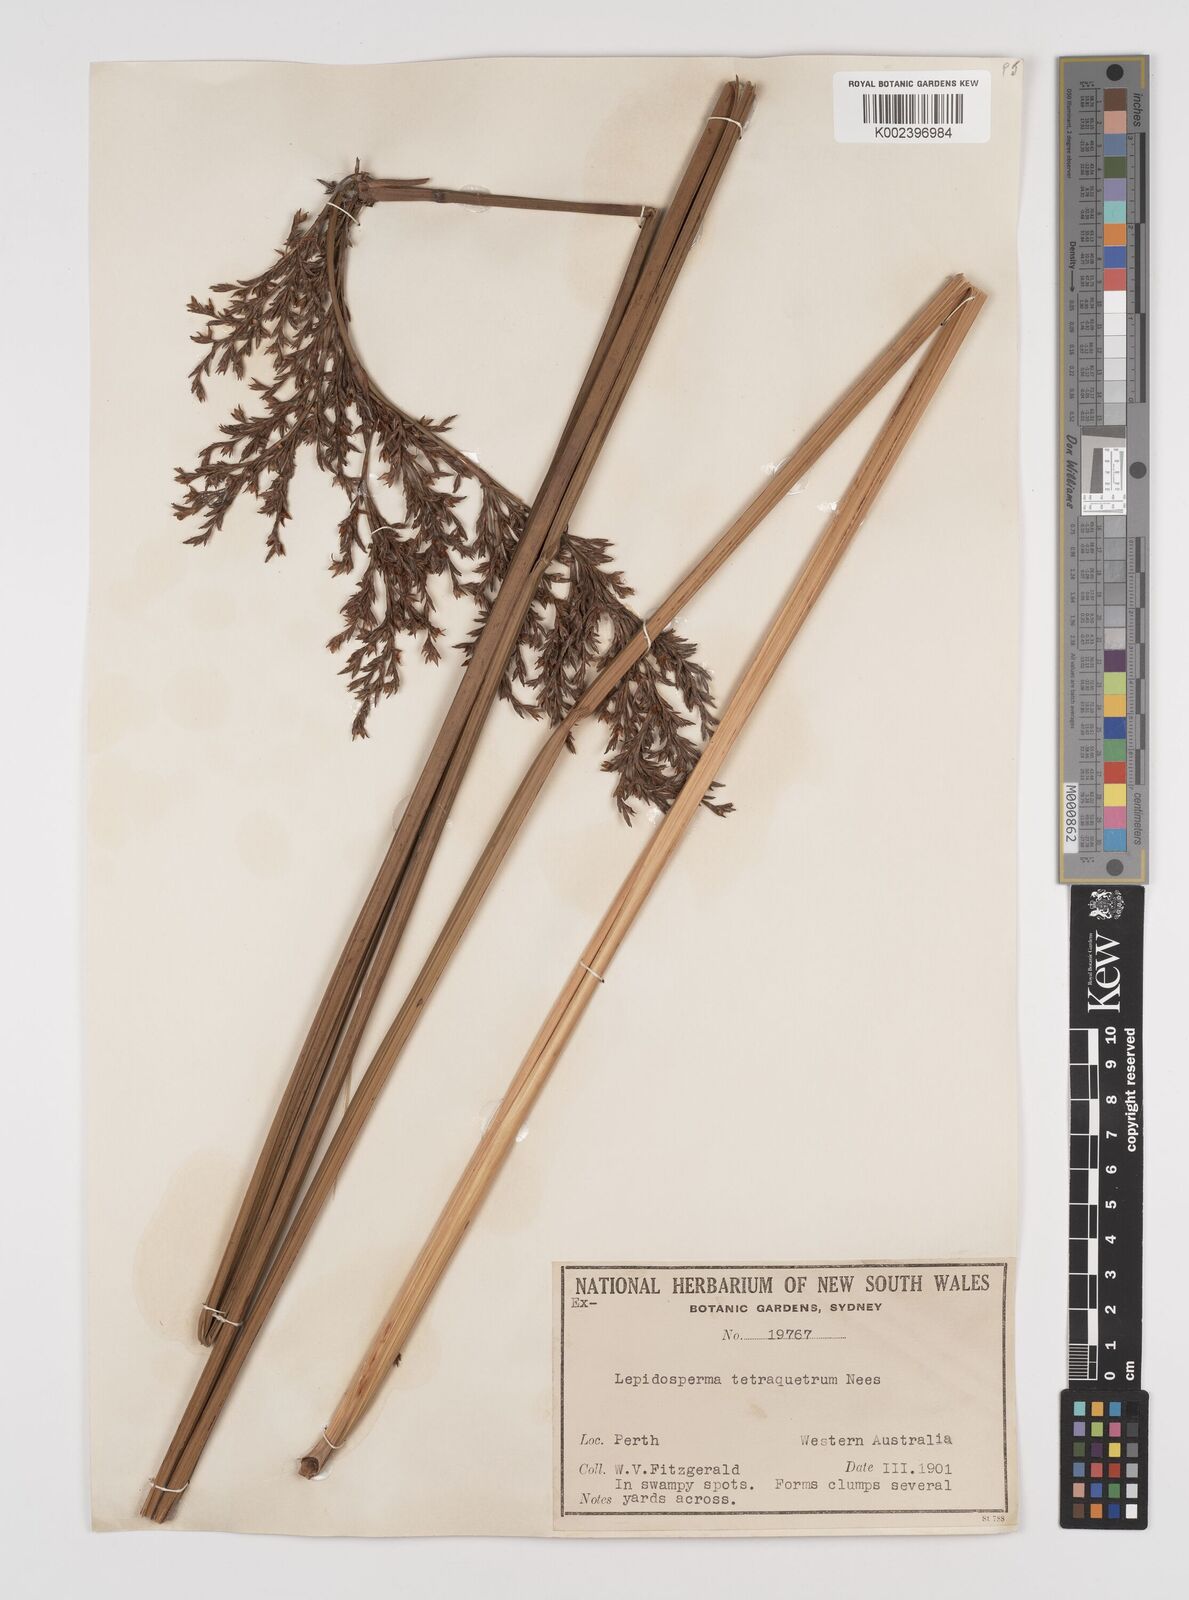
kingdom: Plantae
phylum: Tracheophyta
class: Liliopsida
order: Poales
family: Cyperaceae
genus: Lepidosperma
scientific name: Lepidosperma tetraquetrum
